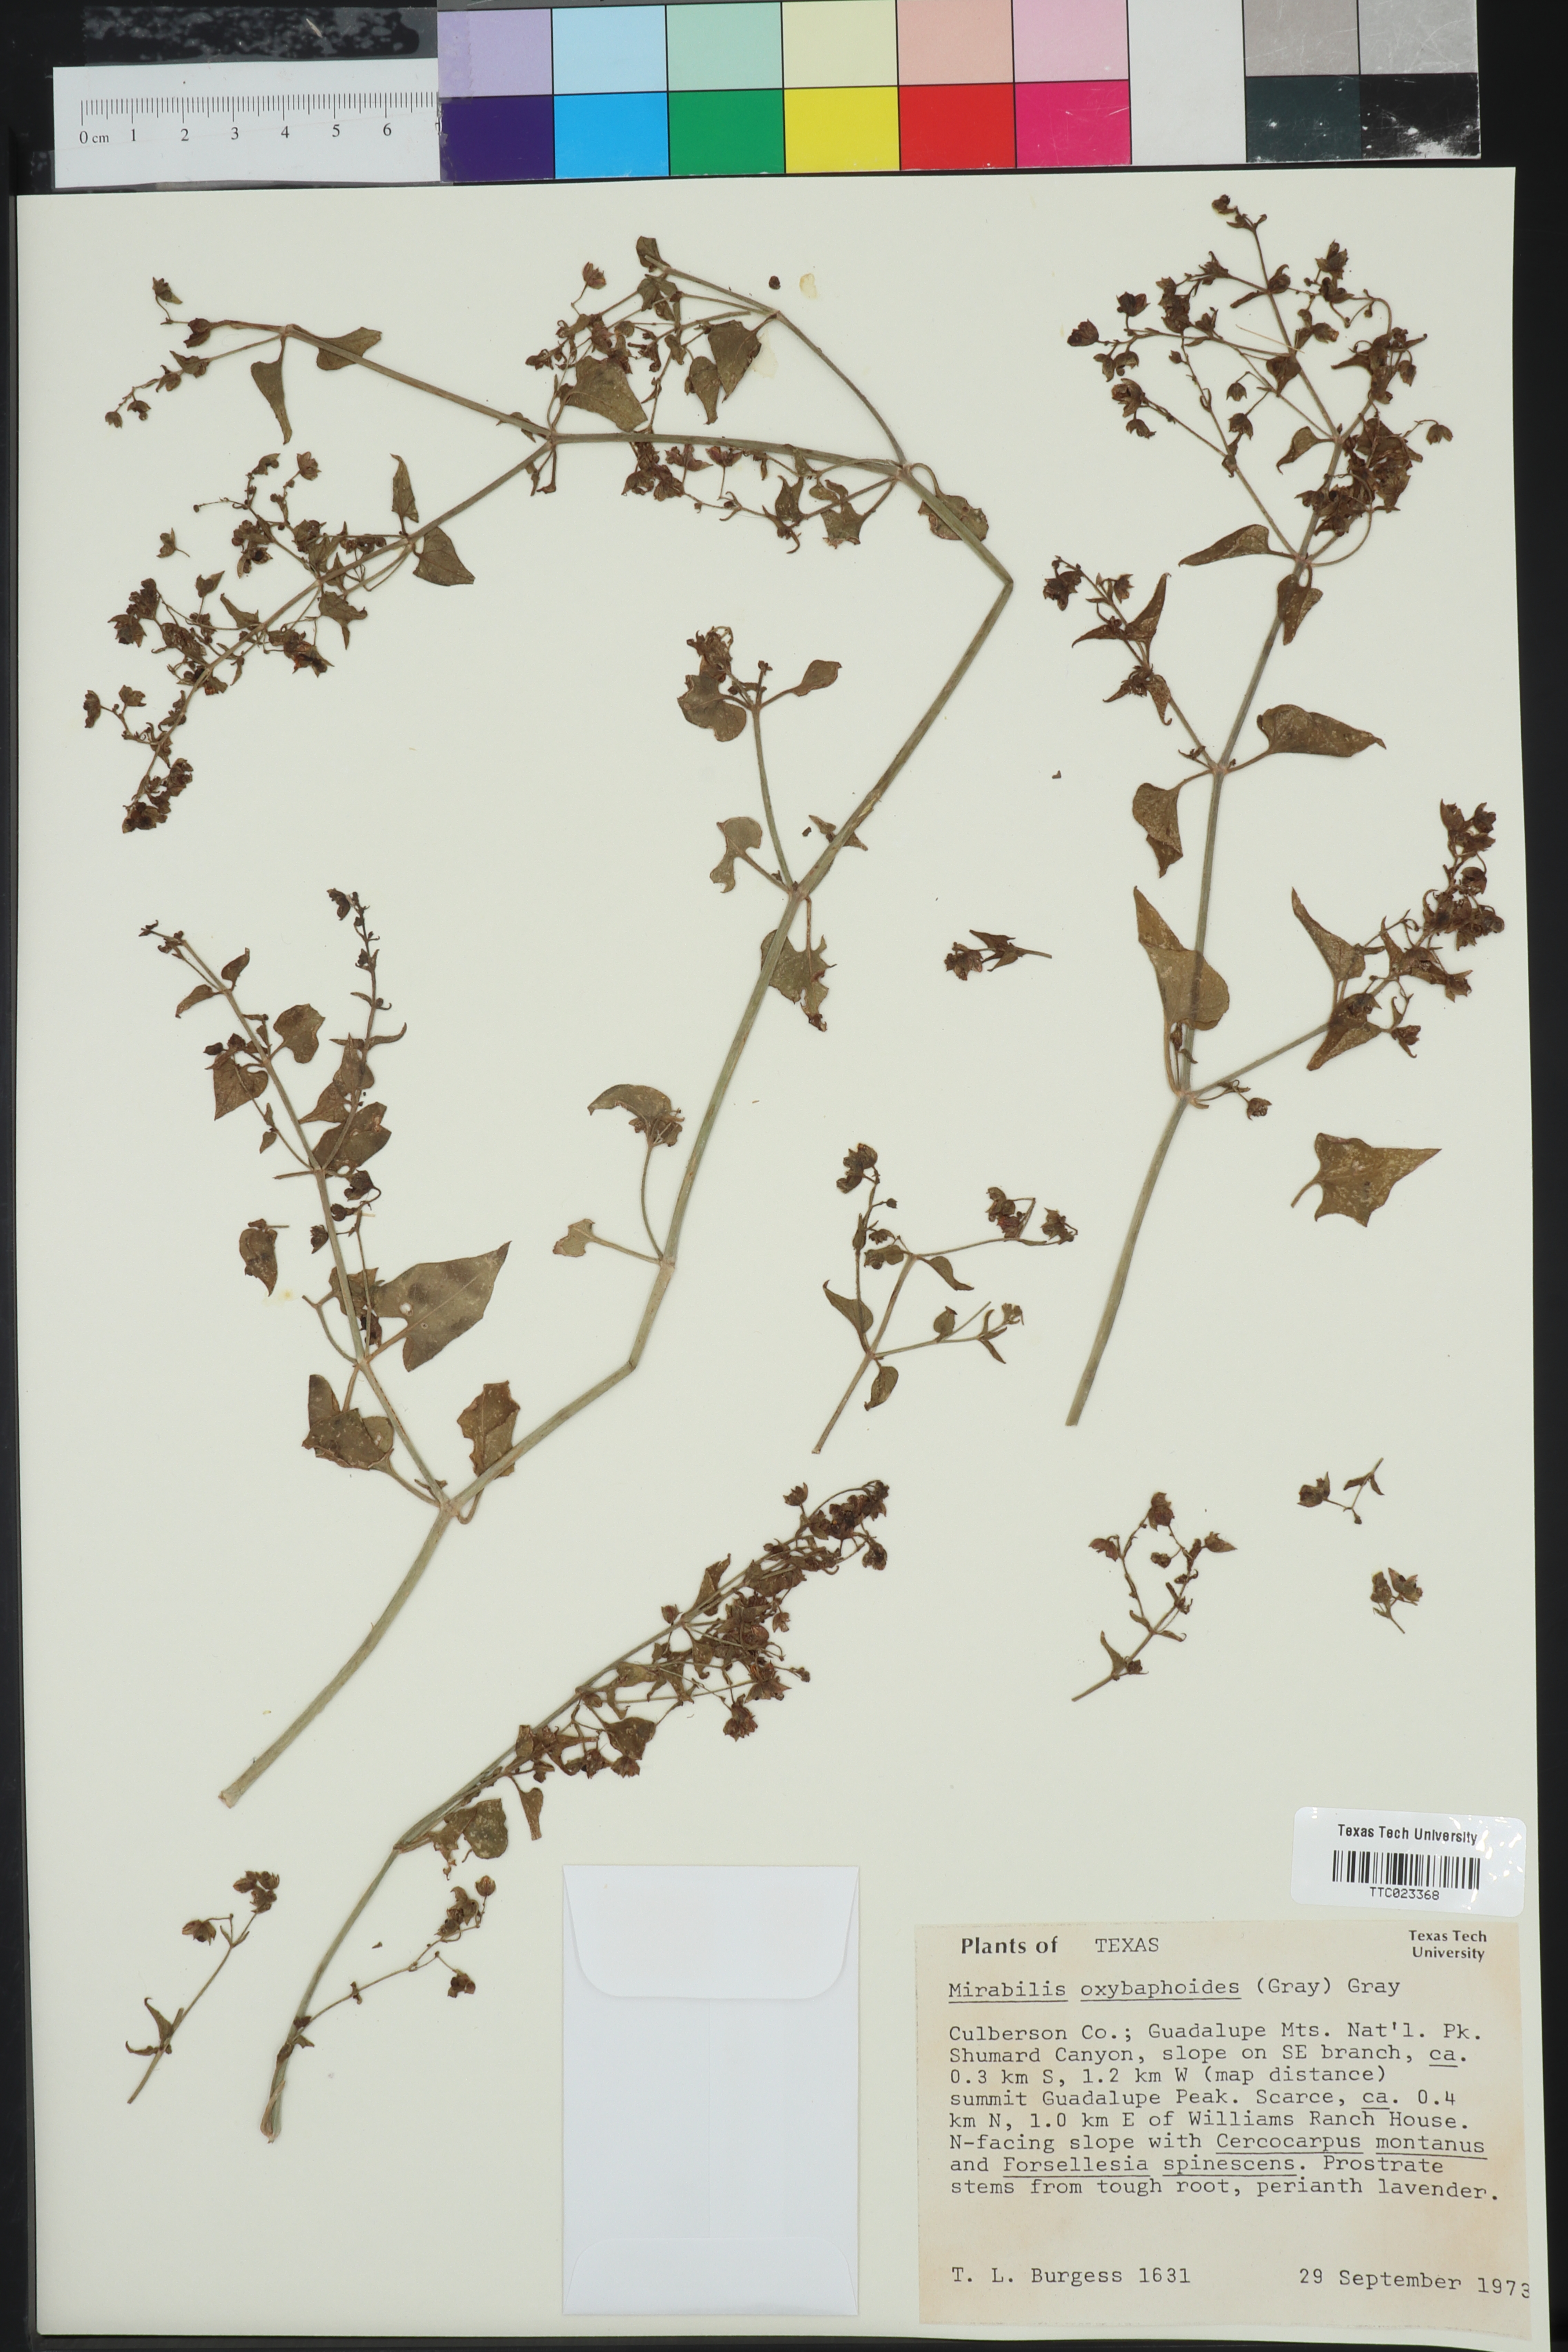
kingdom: Plantae
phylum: Tracheophyta
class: Magnoliopsida
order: Caryophyllales
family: Nyctaginaceae
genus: Mirabilis
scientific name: Mirabilis oxybaphoides
